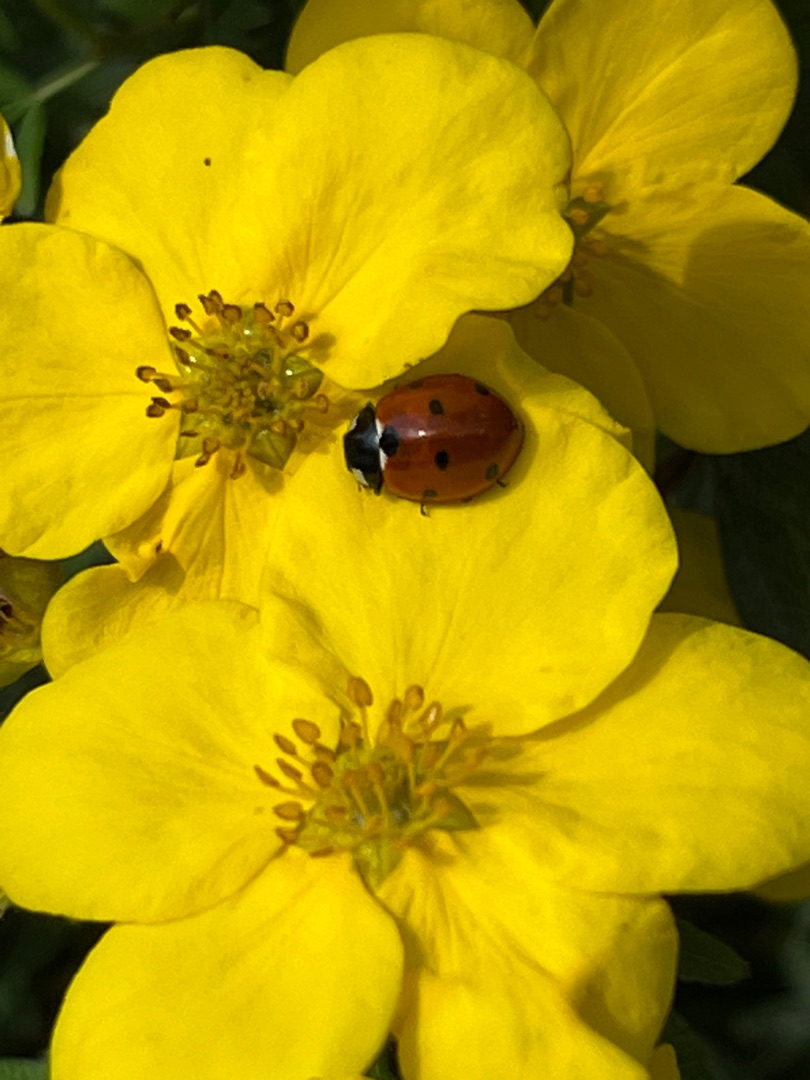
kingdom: Animalia
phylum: Arthropoda
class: Insecta
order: Coleoptera
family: Coccinellidae
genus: Coccinella
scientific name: Coccinella septempunctata
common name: Syvplettet mariehøne
